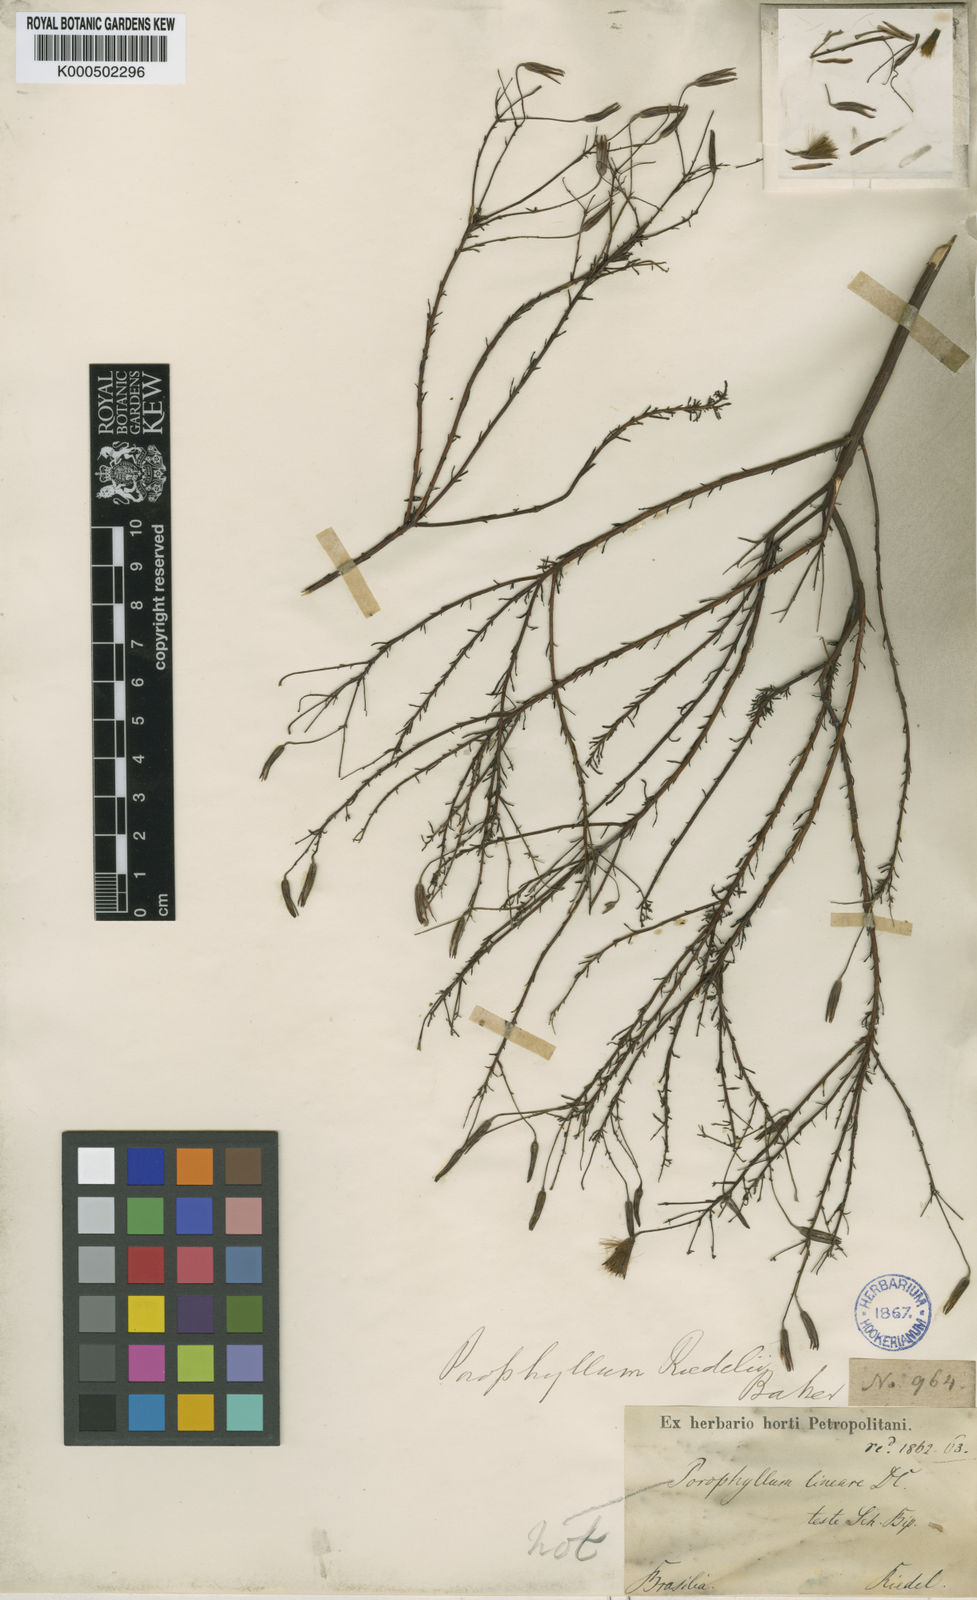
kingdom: Plantae
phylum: Tracheophyta
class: Magnoliopsida
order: Asterales
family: Asteraceae
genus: Porophyllum
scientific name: Porophyllum angustissimum
